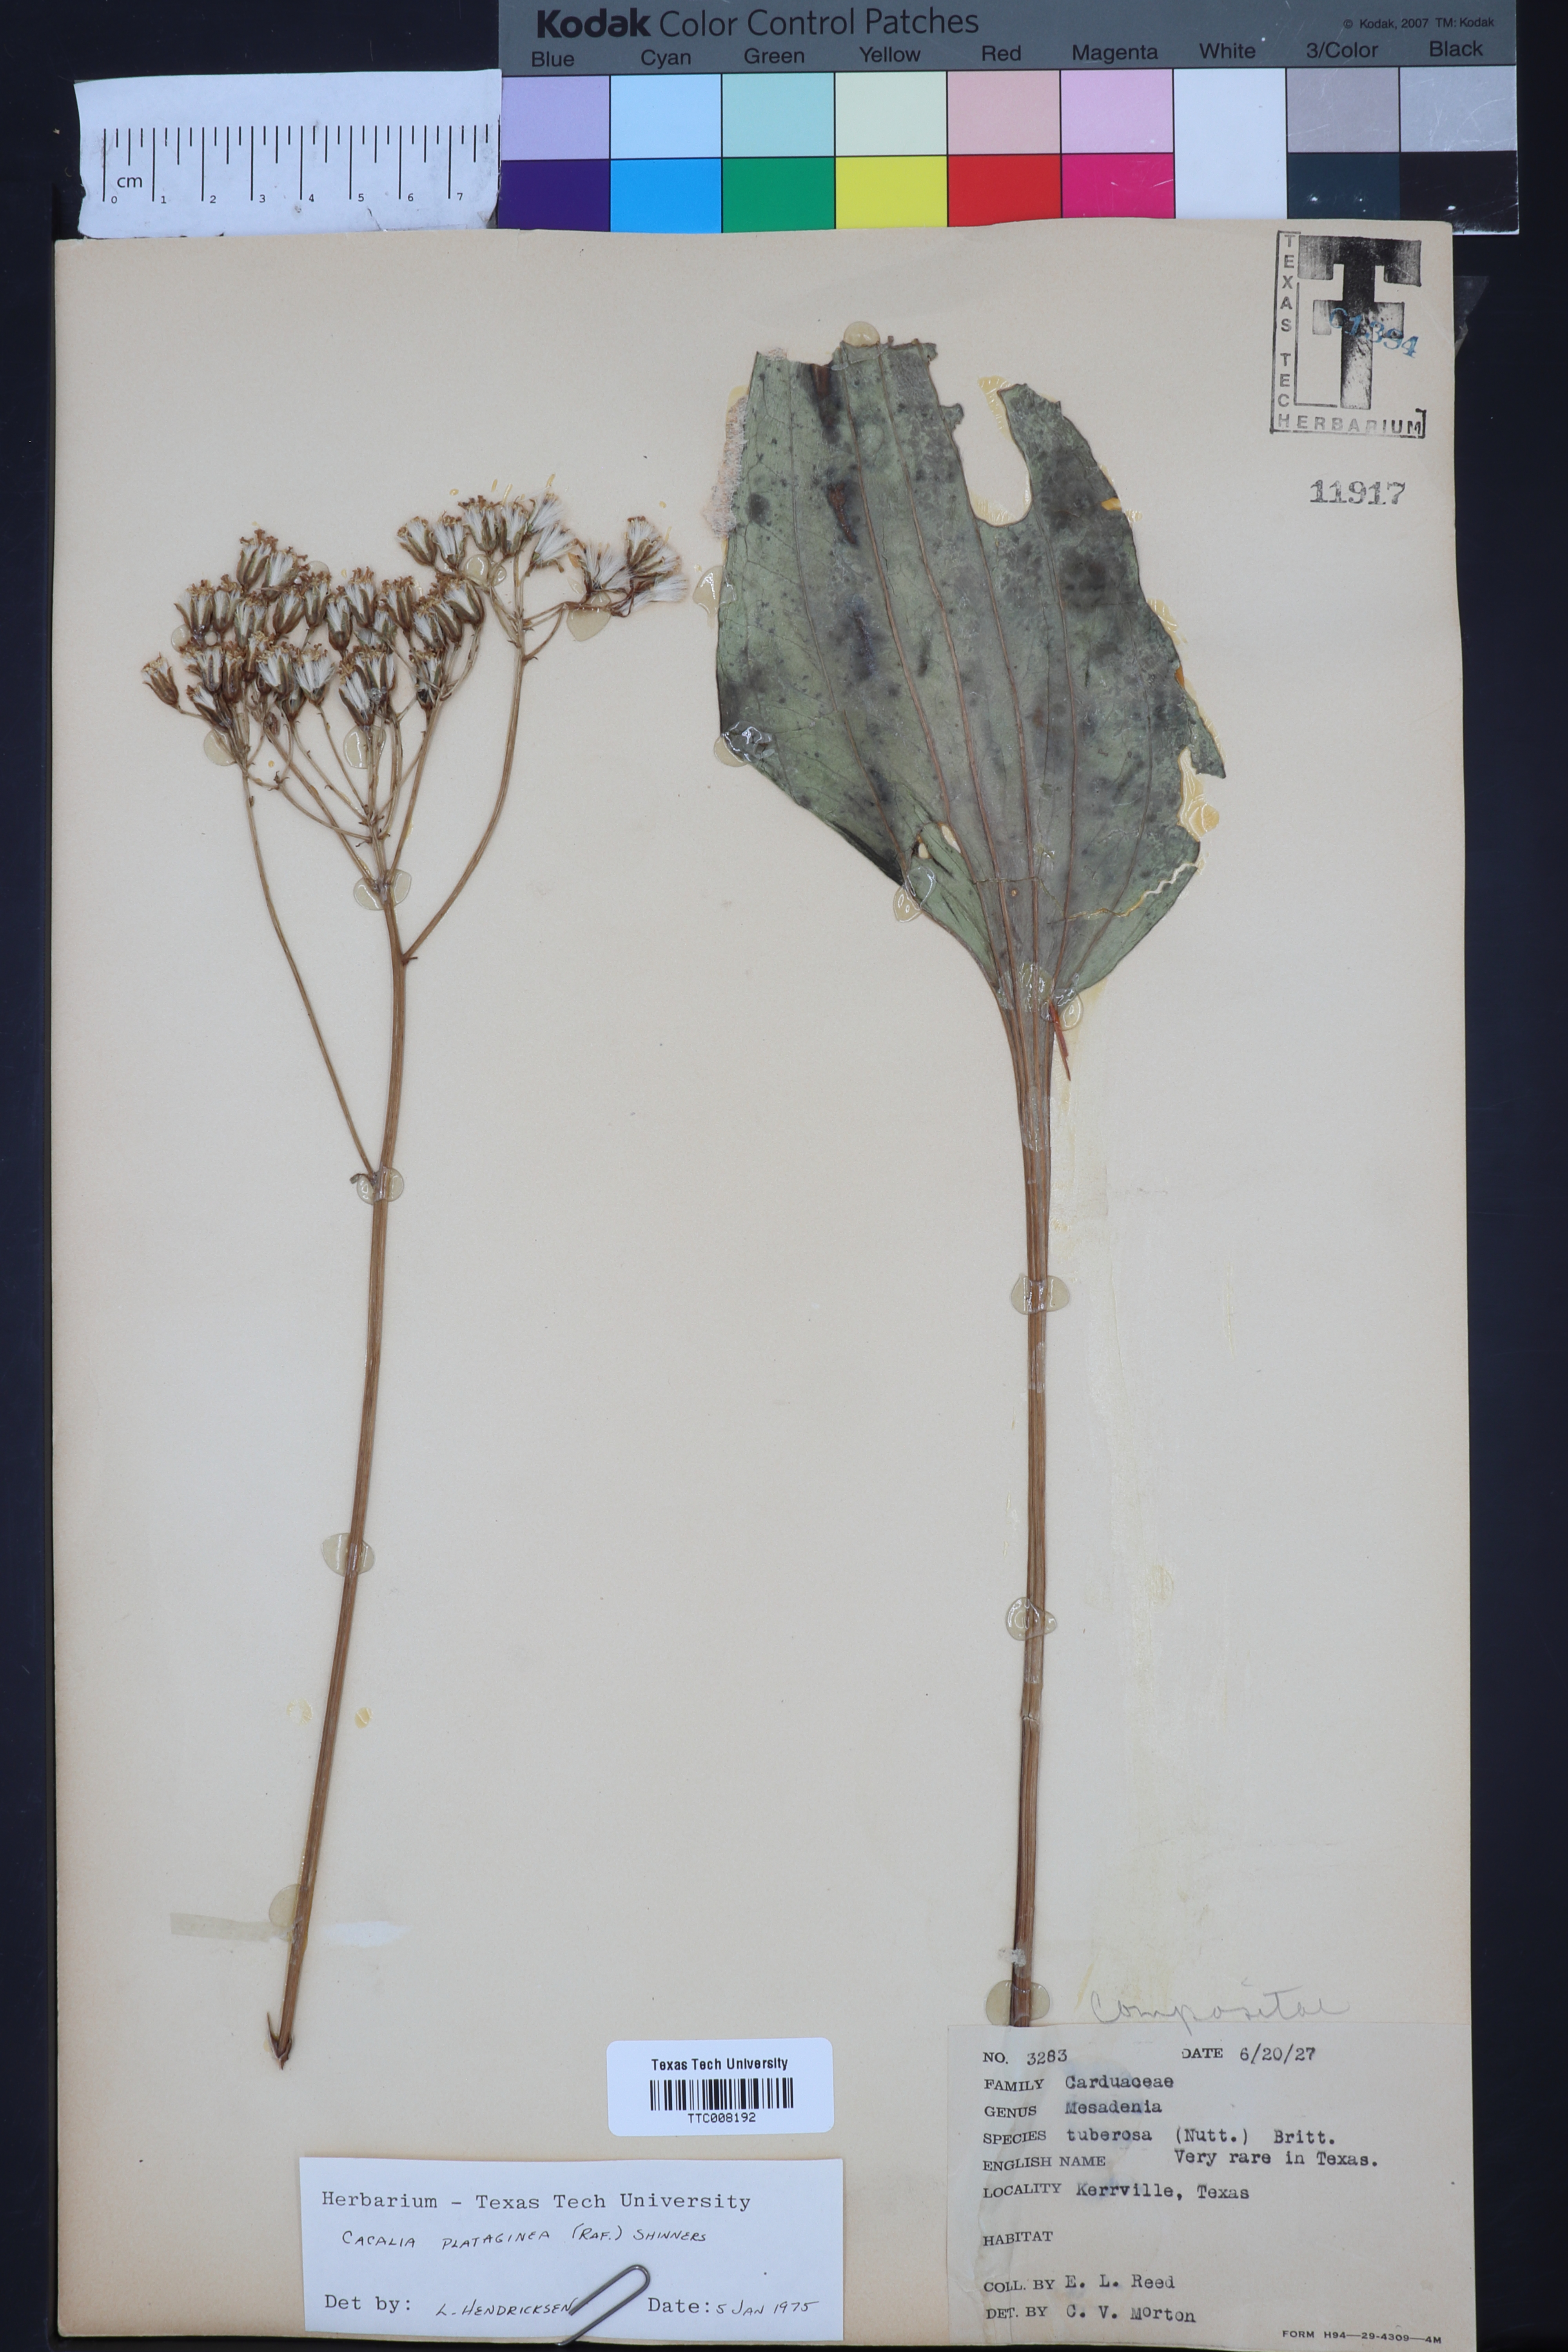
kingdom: Plantae
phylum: Tracheophyta
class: Magnoliopsida
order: Asterales
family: Asteraceae
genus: Arnoglossum
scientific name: Arnoglossum plantagineum
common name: Groove-stemmed indian-plantain
